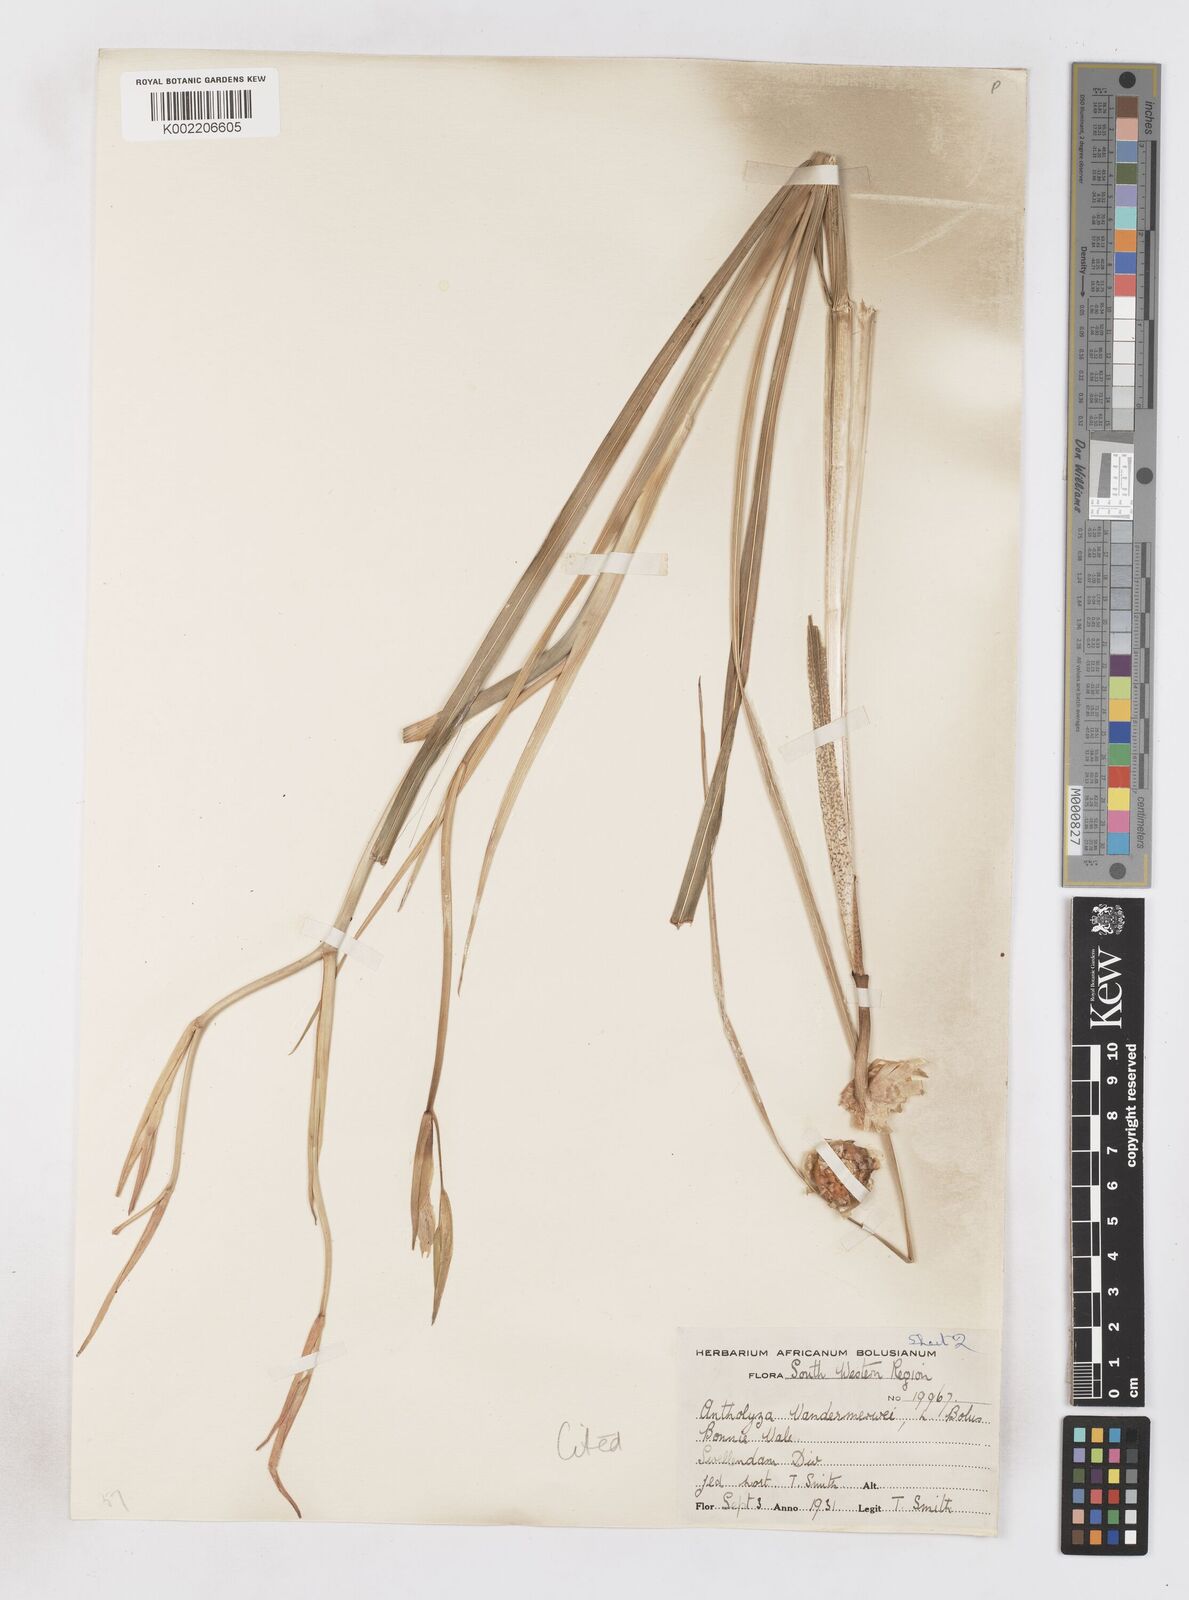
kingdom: Plantae
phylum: Tracheophyta
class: Liliopsida
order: Asparagales
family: Iridaceae
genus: Gladiolus
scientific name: Gladiolus vandermerwei
